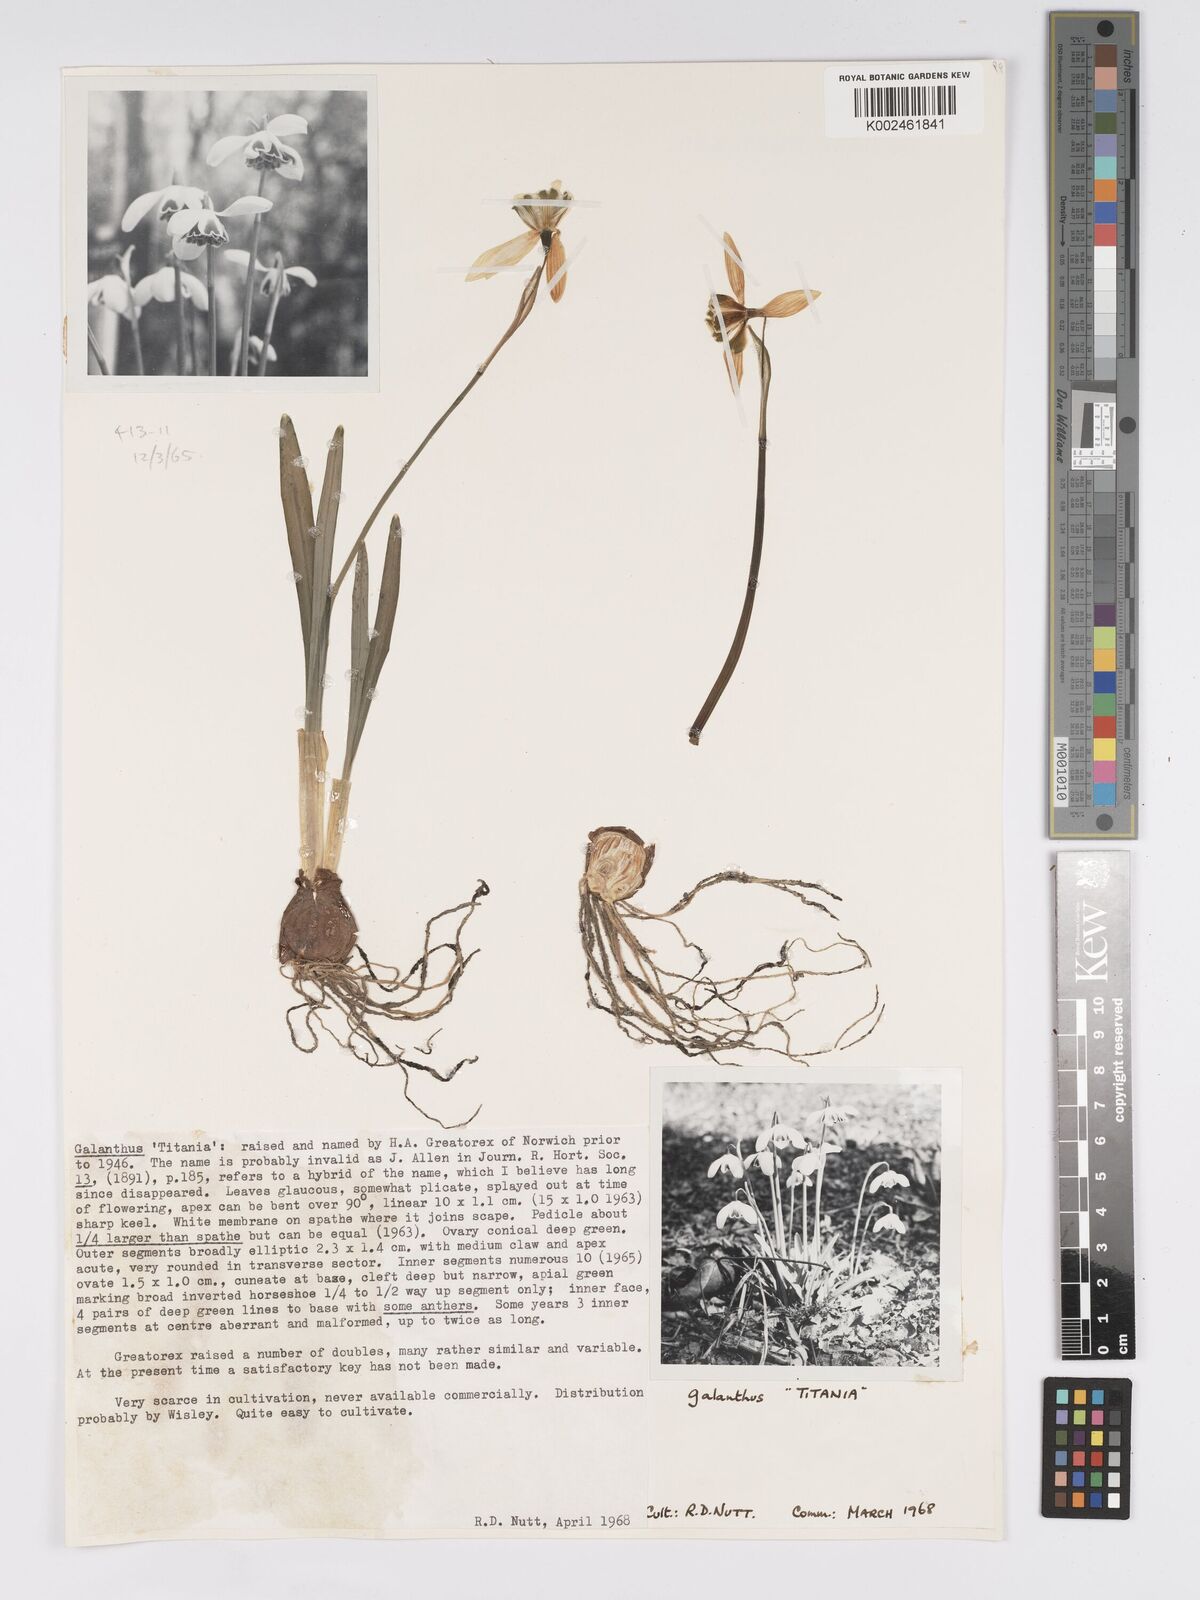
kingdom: Plantae
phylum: Tracheophyta
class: Liliopsida
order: Asparagales
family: Amaryllidaceae
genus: Galanthus
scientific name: Galanthus
